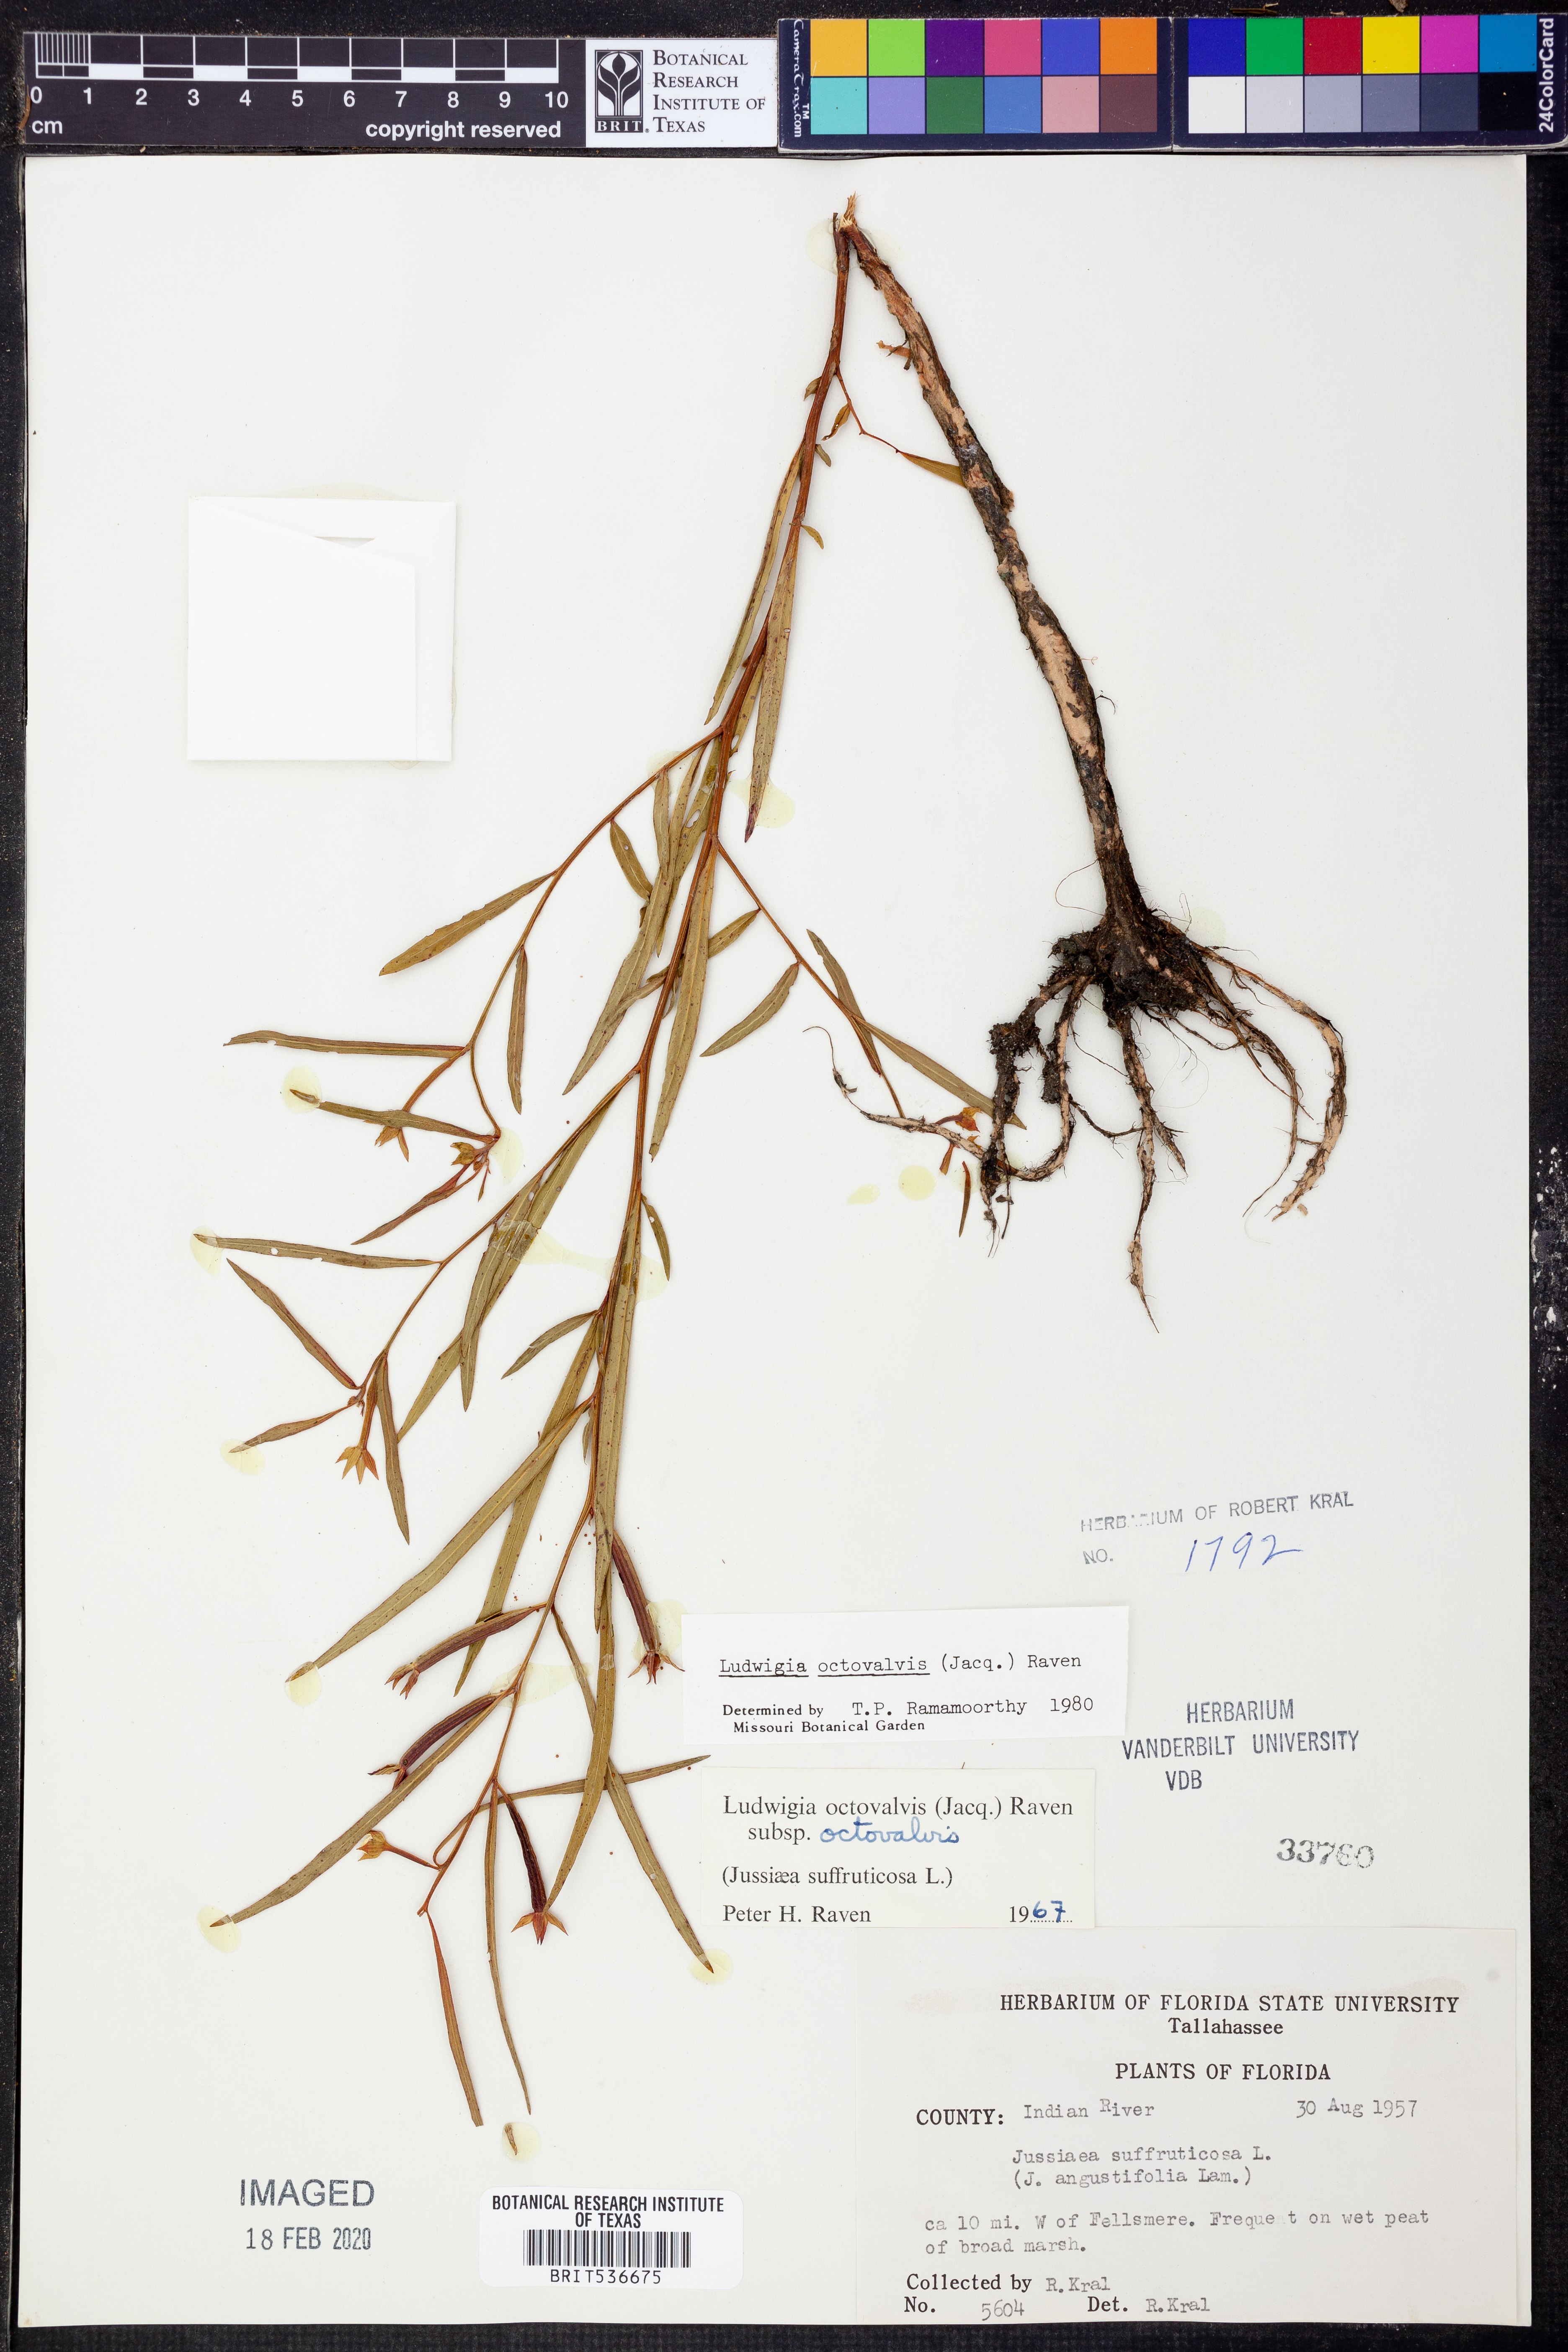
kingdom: Plantae
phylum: Tracheophyta
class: Magnoliopsida
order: Myrtales
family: Onagraceae
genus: Ludwigia
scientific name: Ludwigia octovalvis
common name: Water-primrose
